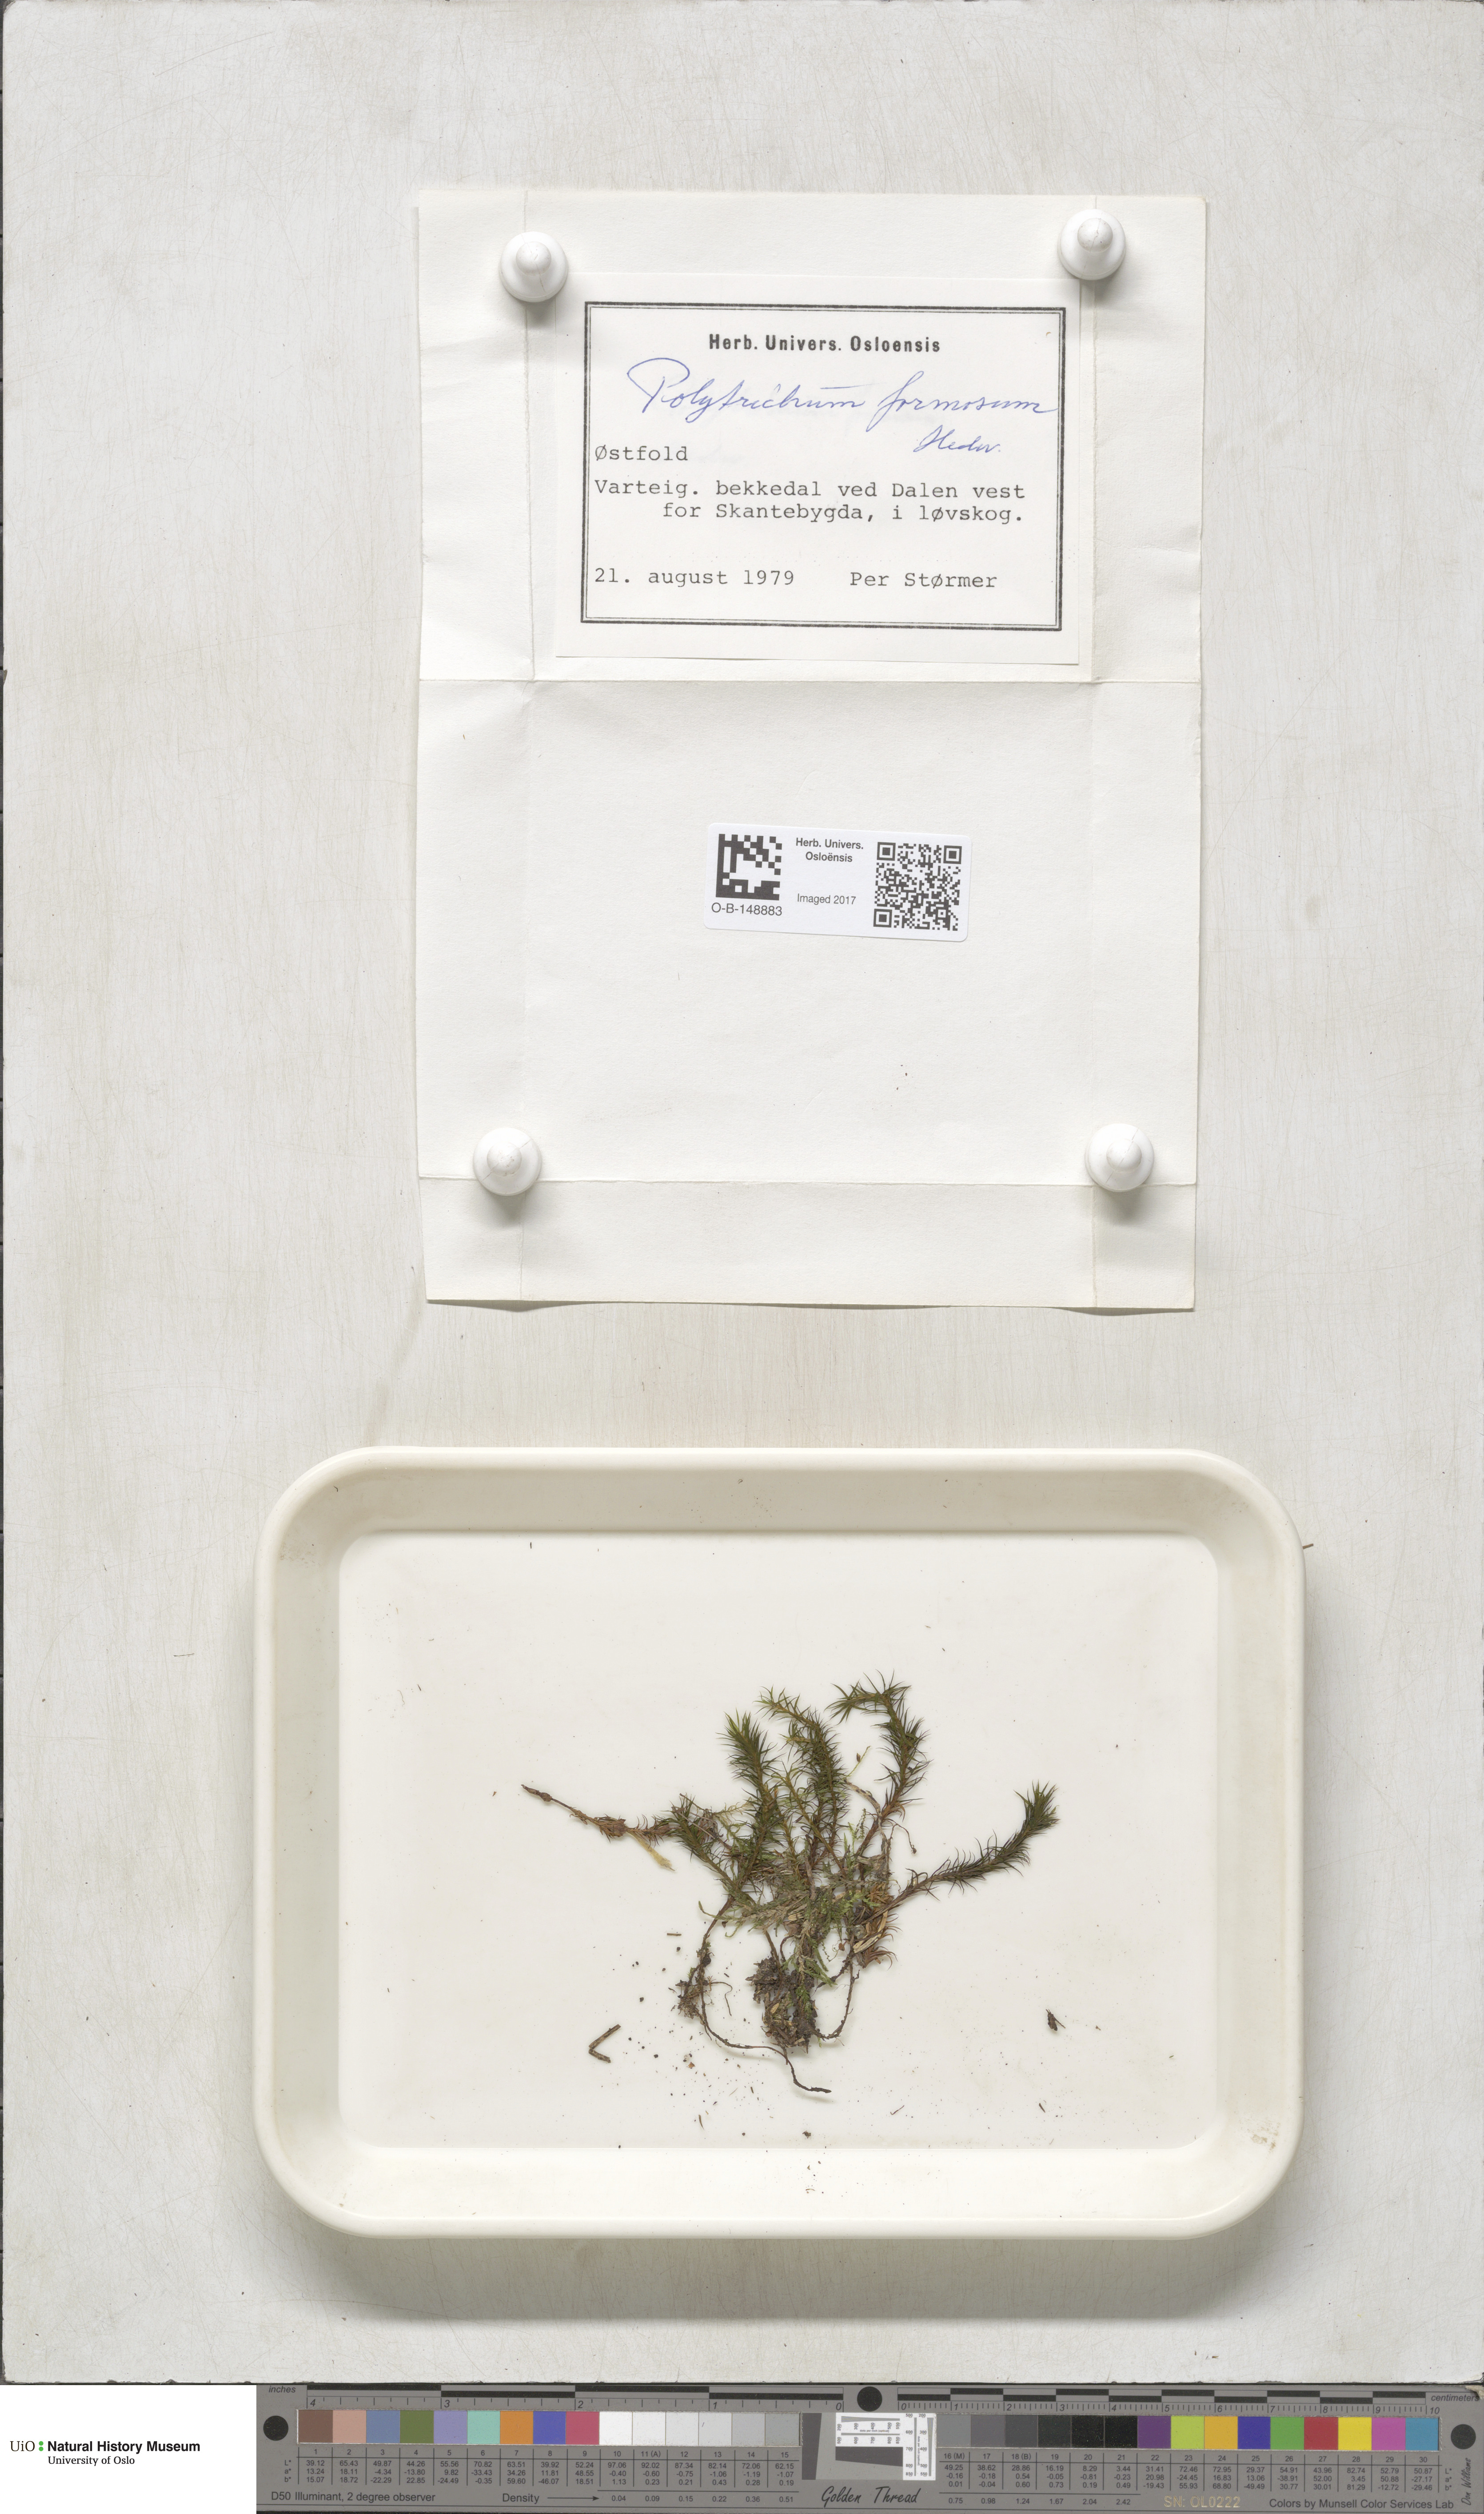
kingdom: Plantae
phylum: Bryophyta
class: Polytrichopsida
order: Polytrichales
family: Polytrichaceae
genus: Polytrichum
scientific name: Polytrichum formosum
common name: Bank haircap moss
